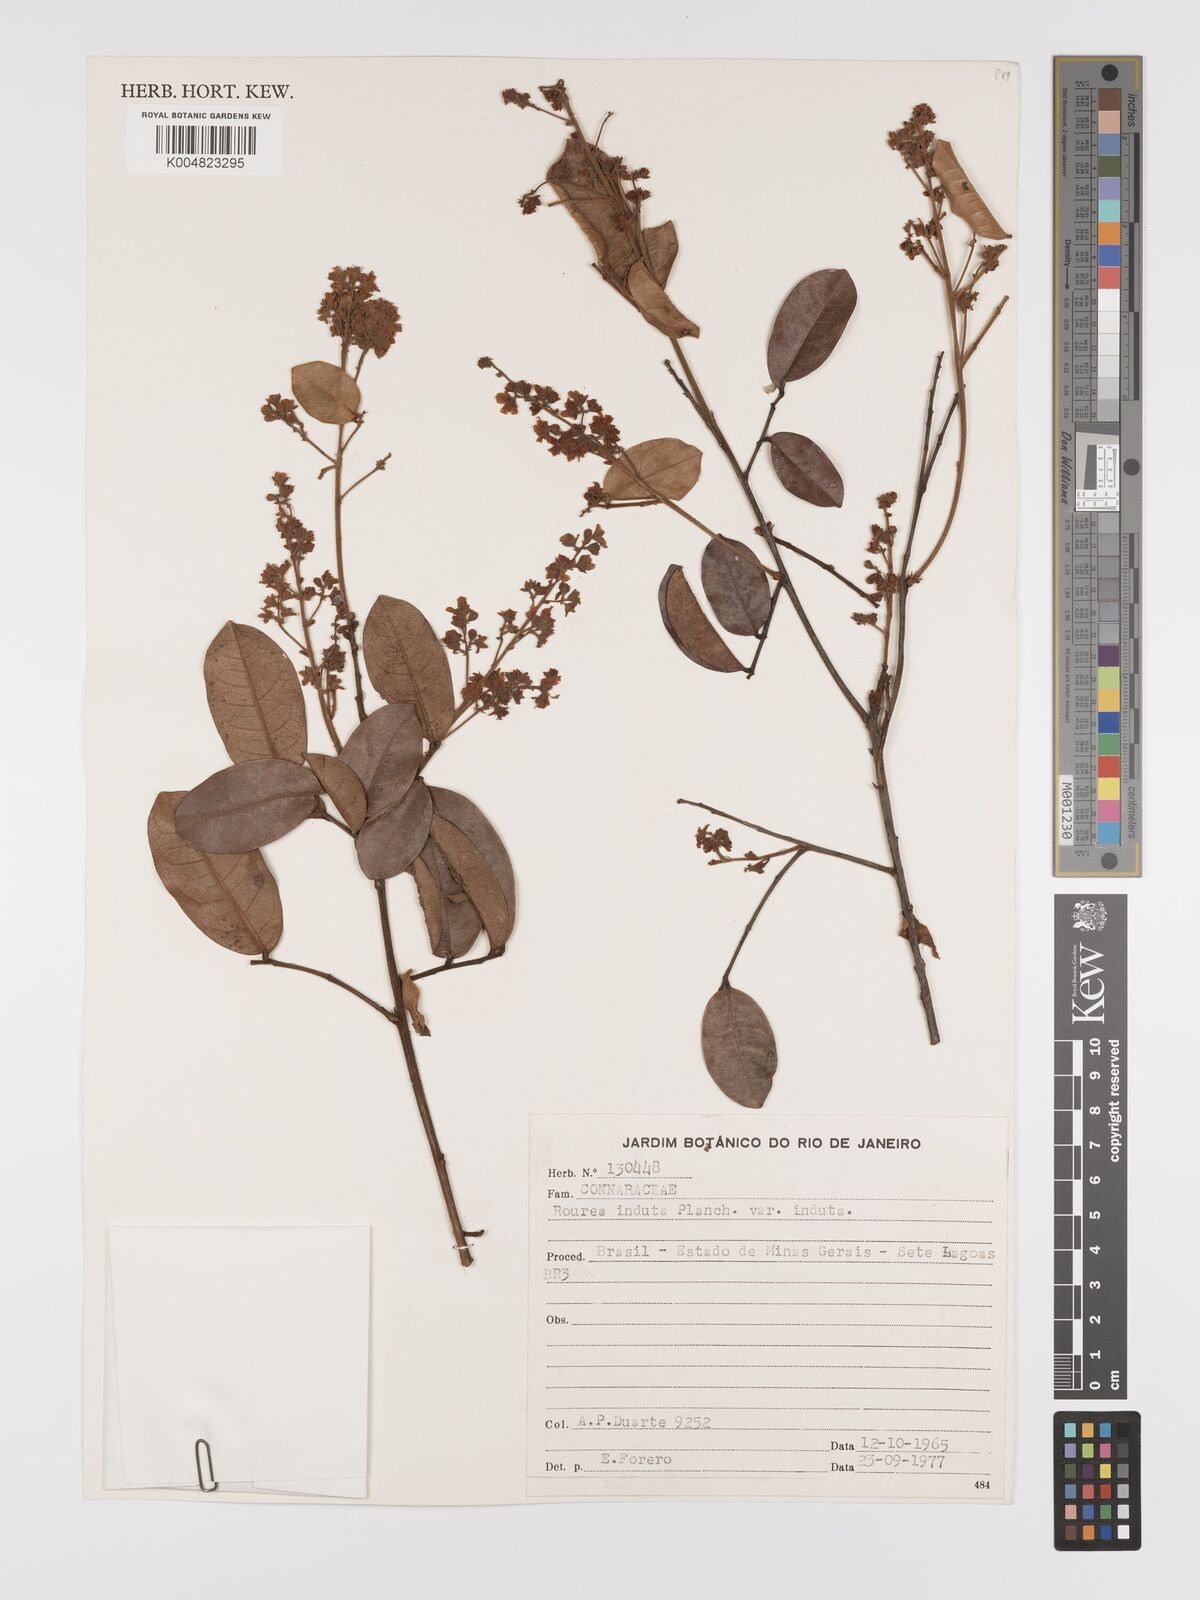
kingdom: Plantae
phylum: Tracheophyta
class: Magnoliopsida
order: Oxalidales
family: Connaraceae
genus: Rourea
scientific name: Rourea induta
